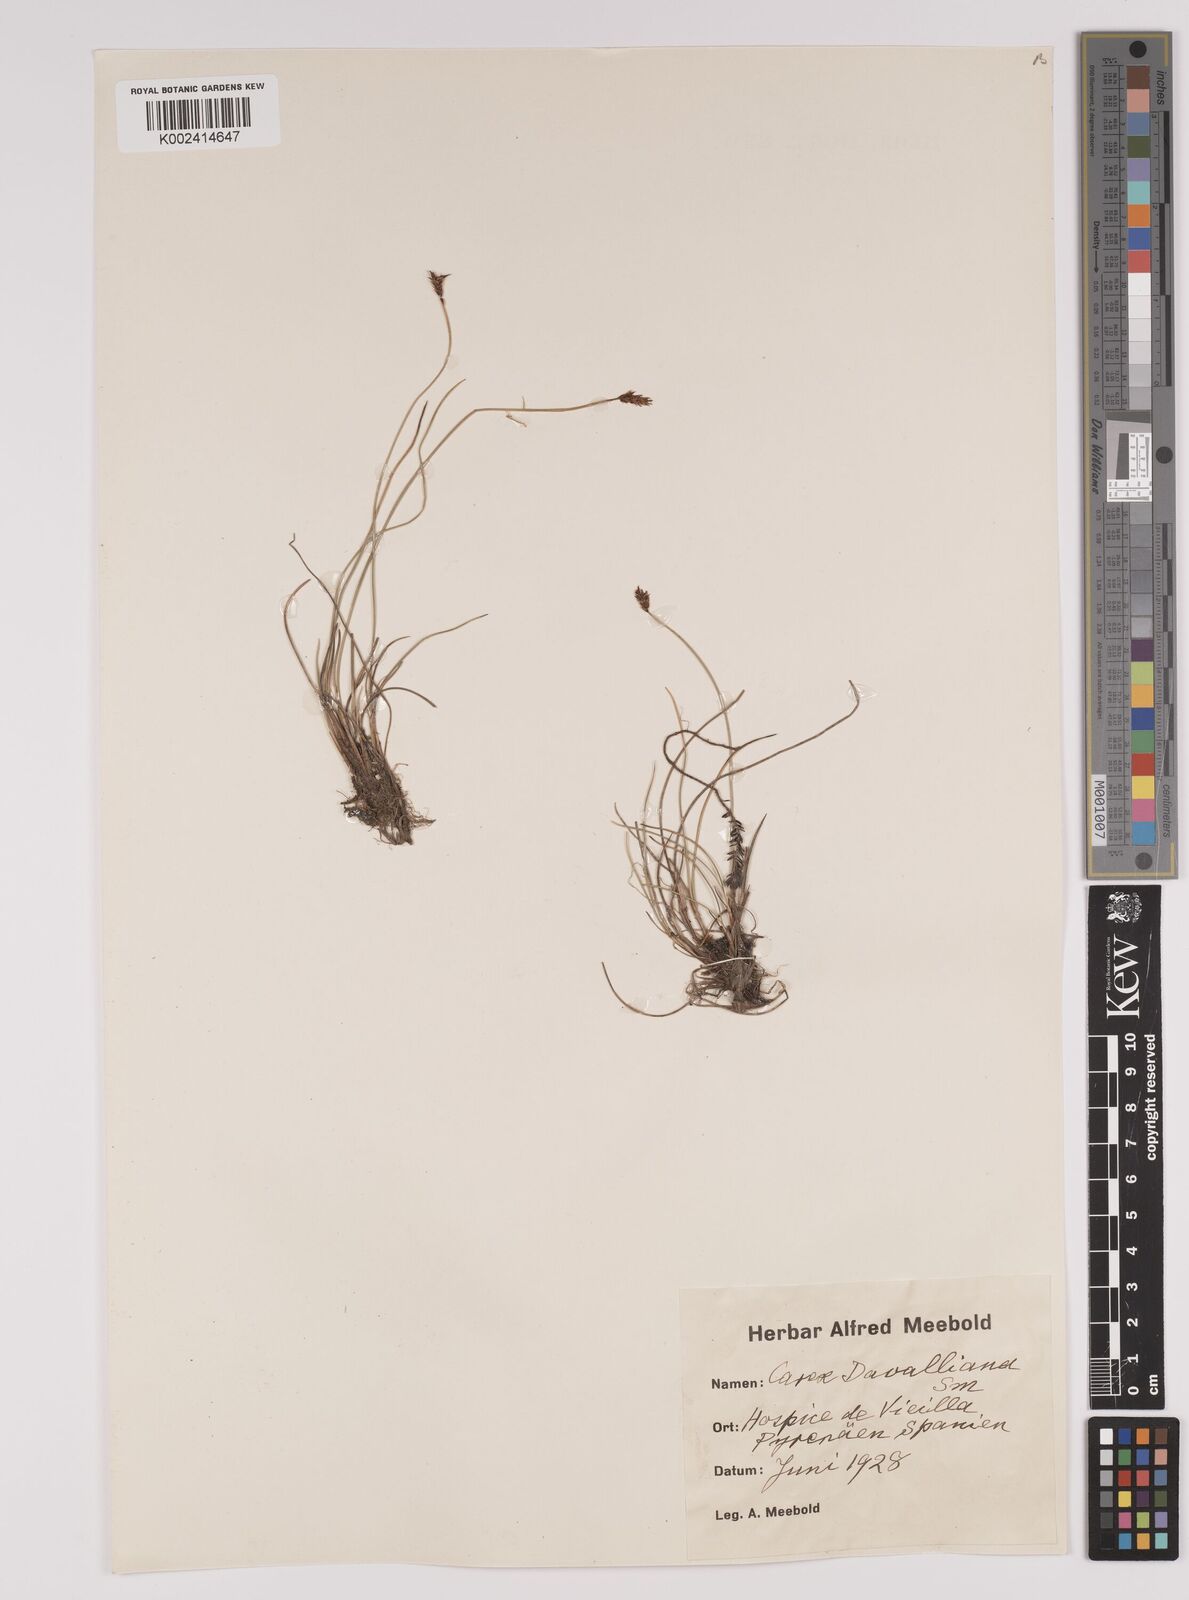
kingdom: Plantae
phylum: Tracheophyta
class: Liliopsida
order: Poales
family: Cyperaceae
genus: Carex
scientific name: Carex davalliana
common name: Davall's sedge
